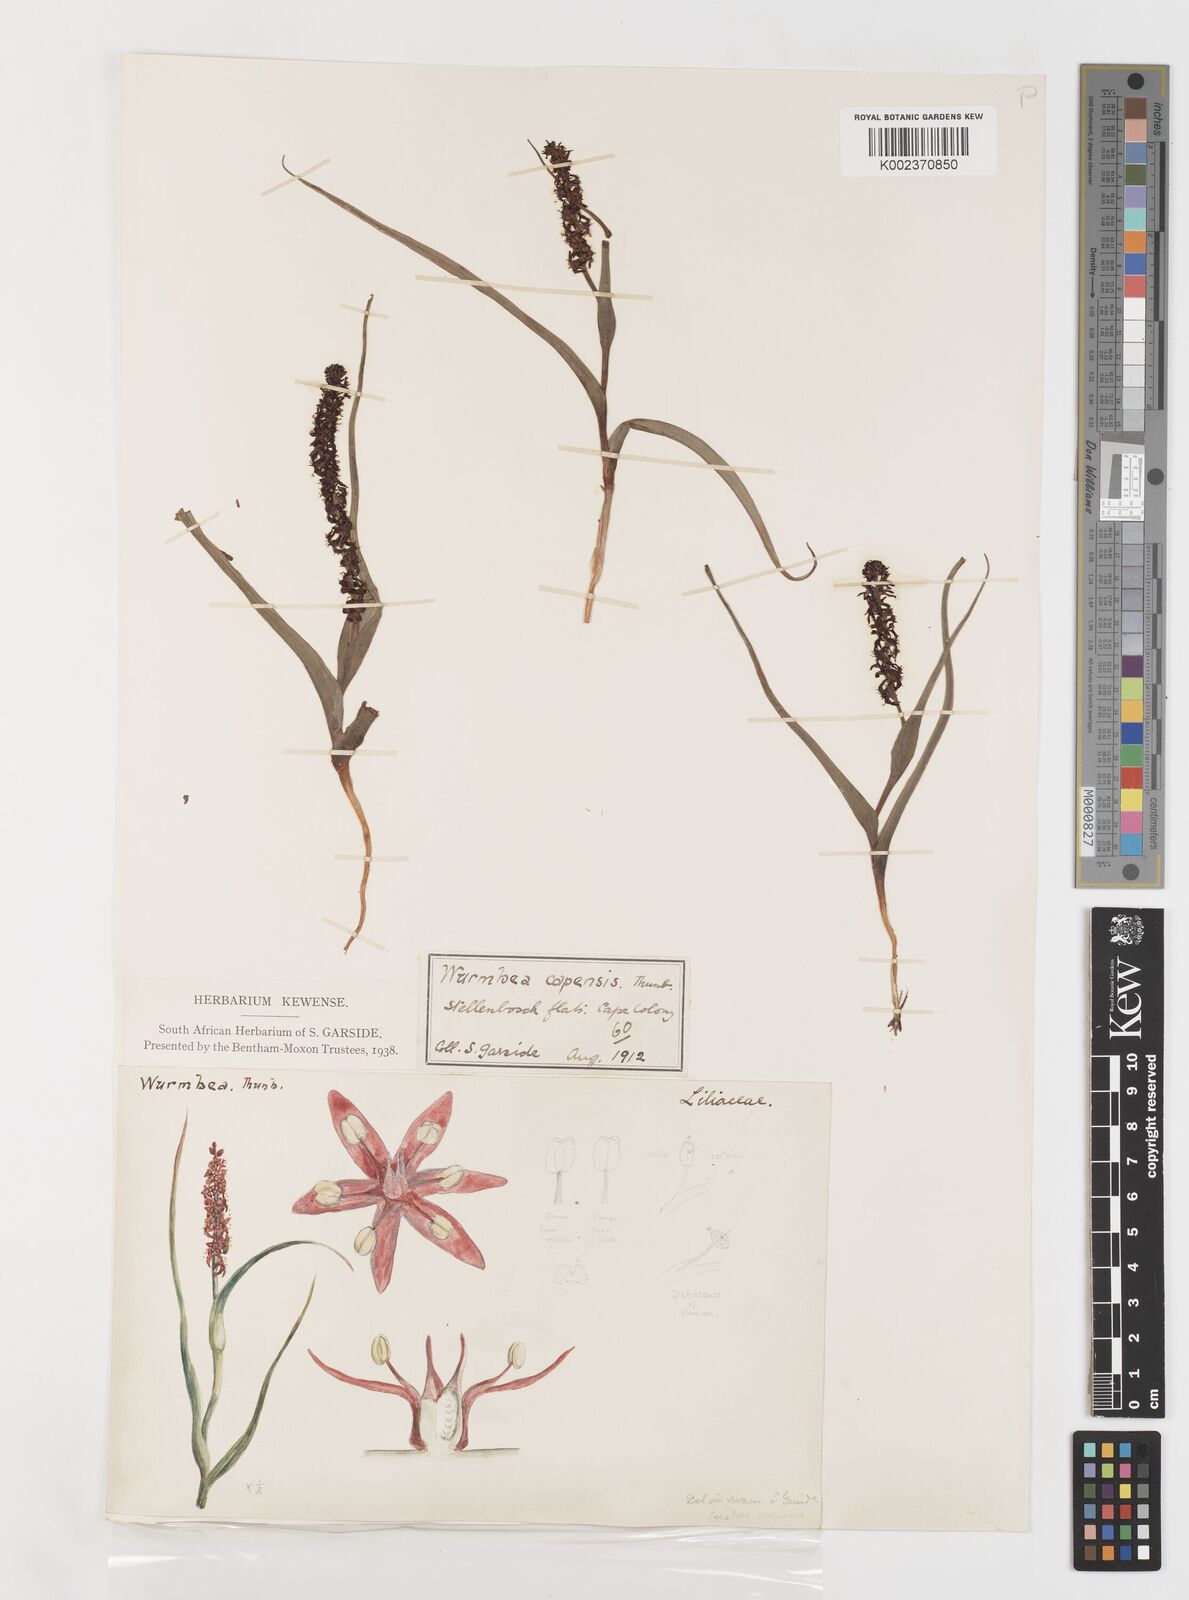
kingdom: Plantae
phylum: Tracheophyta
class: Liliopsida
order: Liliales
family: Colchicaceae
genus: Wurmbea
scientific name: Wurmbea capensis
